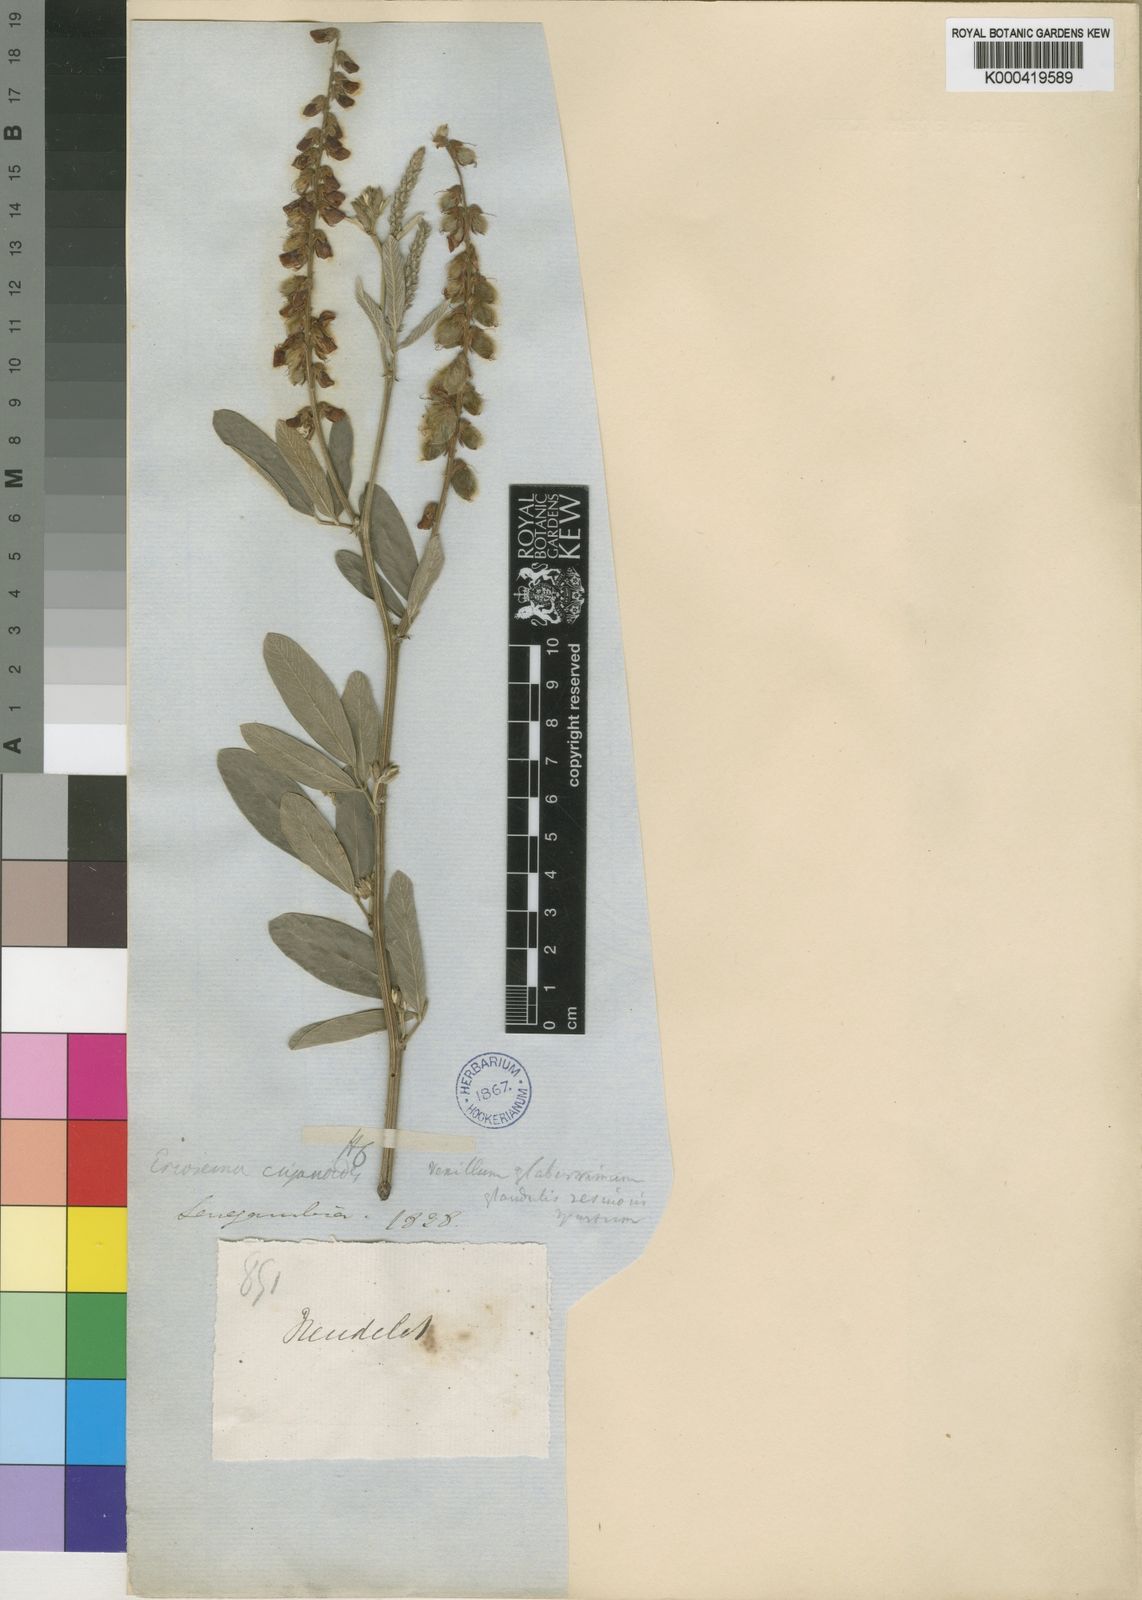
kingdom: Plantae
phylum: Tracheophyta
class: Magnoliopsida
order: Fabales
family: Fabaceae
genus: Eriosema
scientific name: Eriosema psoraleoides
